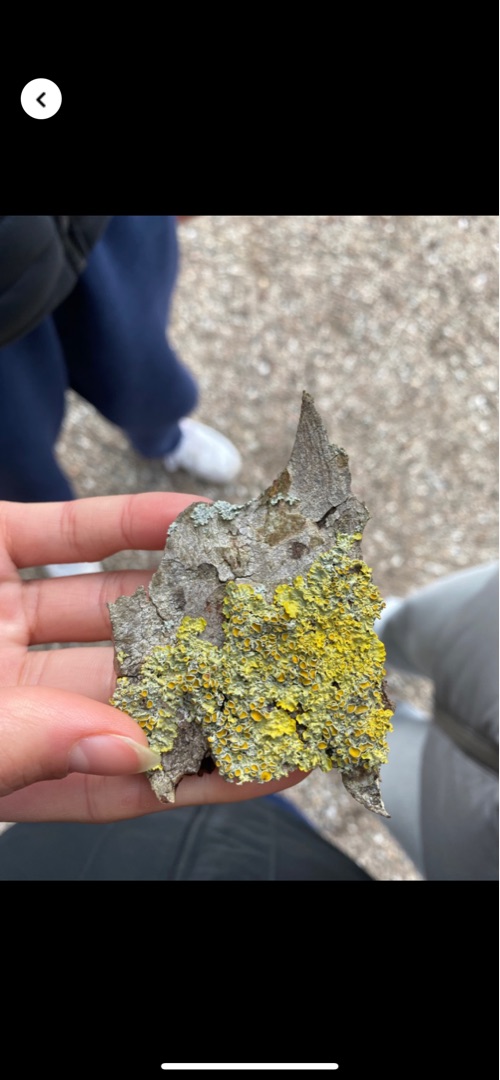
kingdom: Fungi
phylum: Ascomycota
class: Lecanoromycetes
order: Teloschistales
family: Teloschistaceae
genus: Xanthoria
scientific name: Xanthoria parietina
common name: Almindelig væggelav
